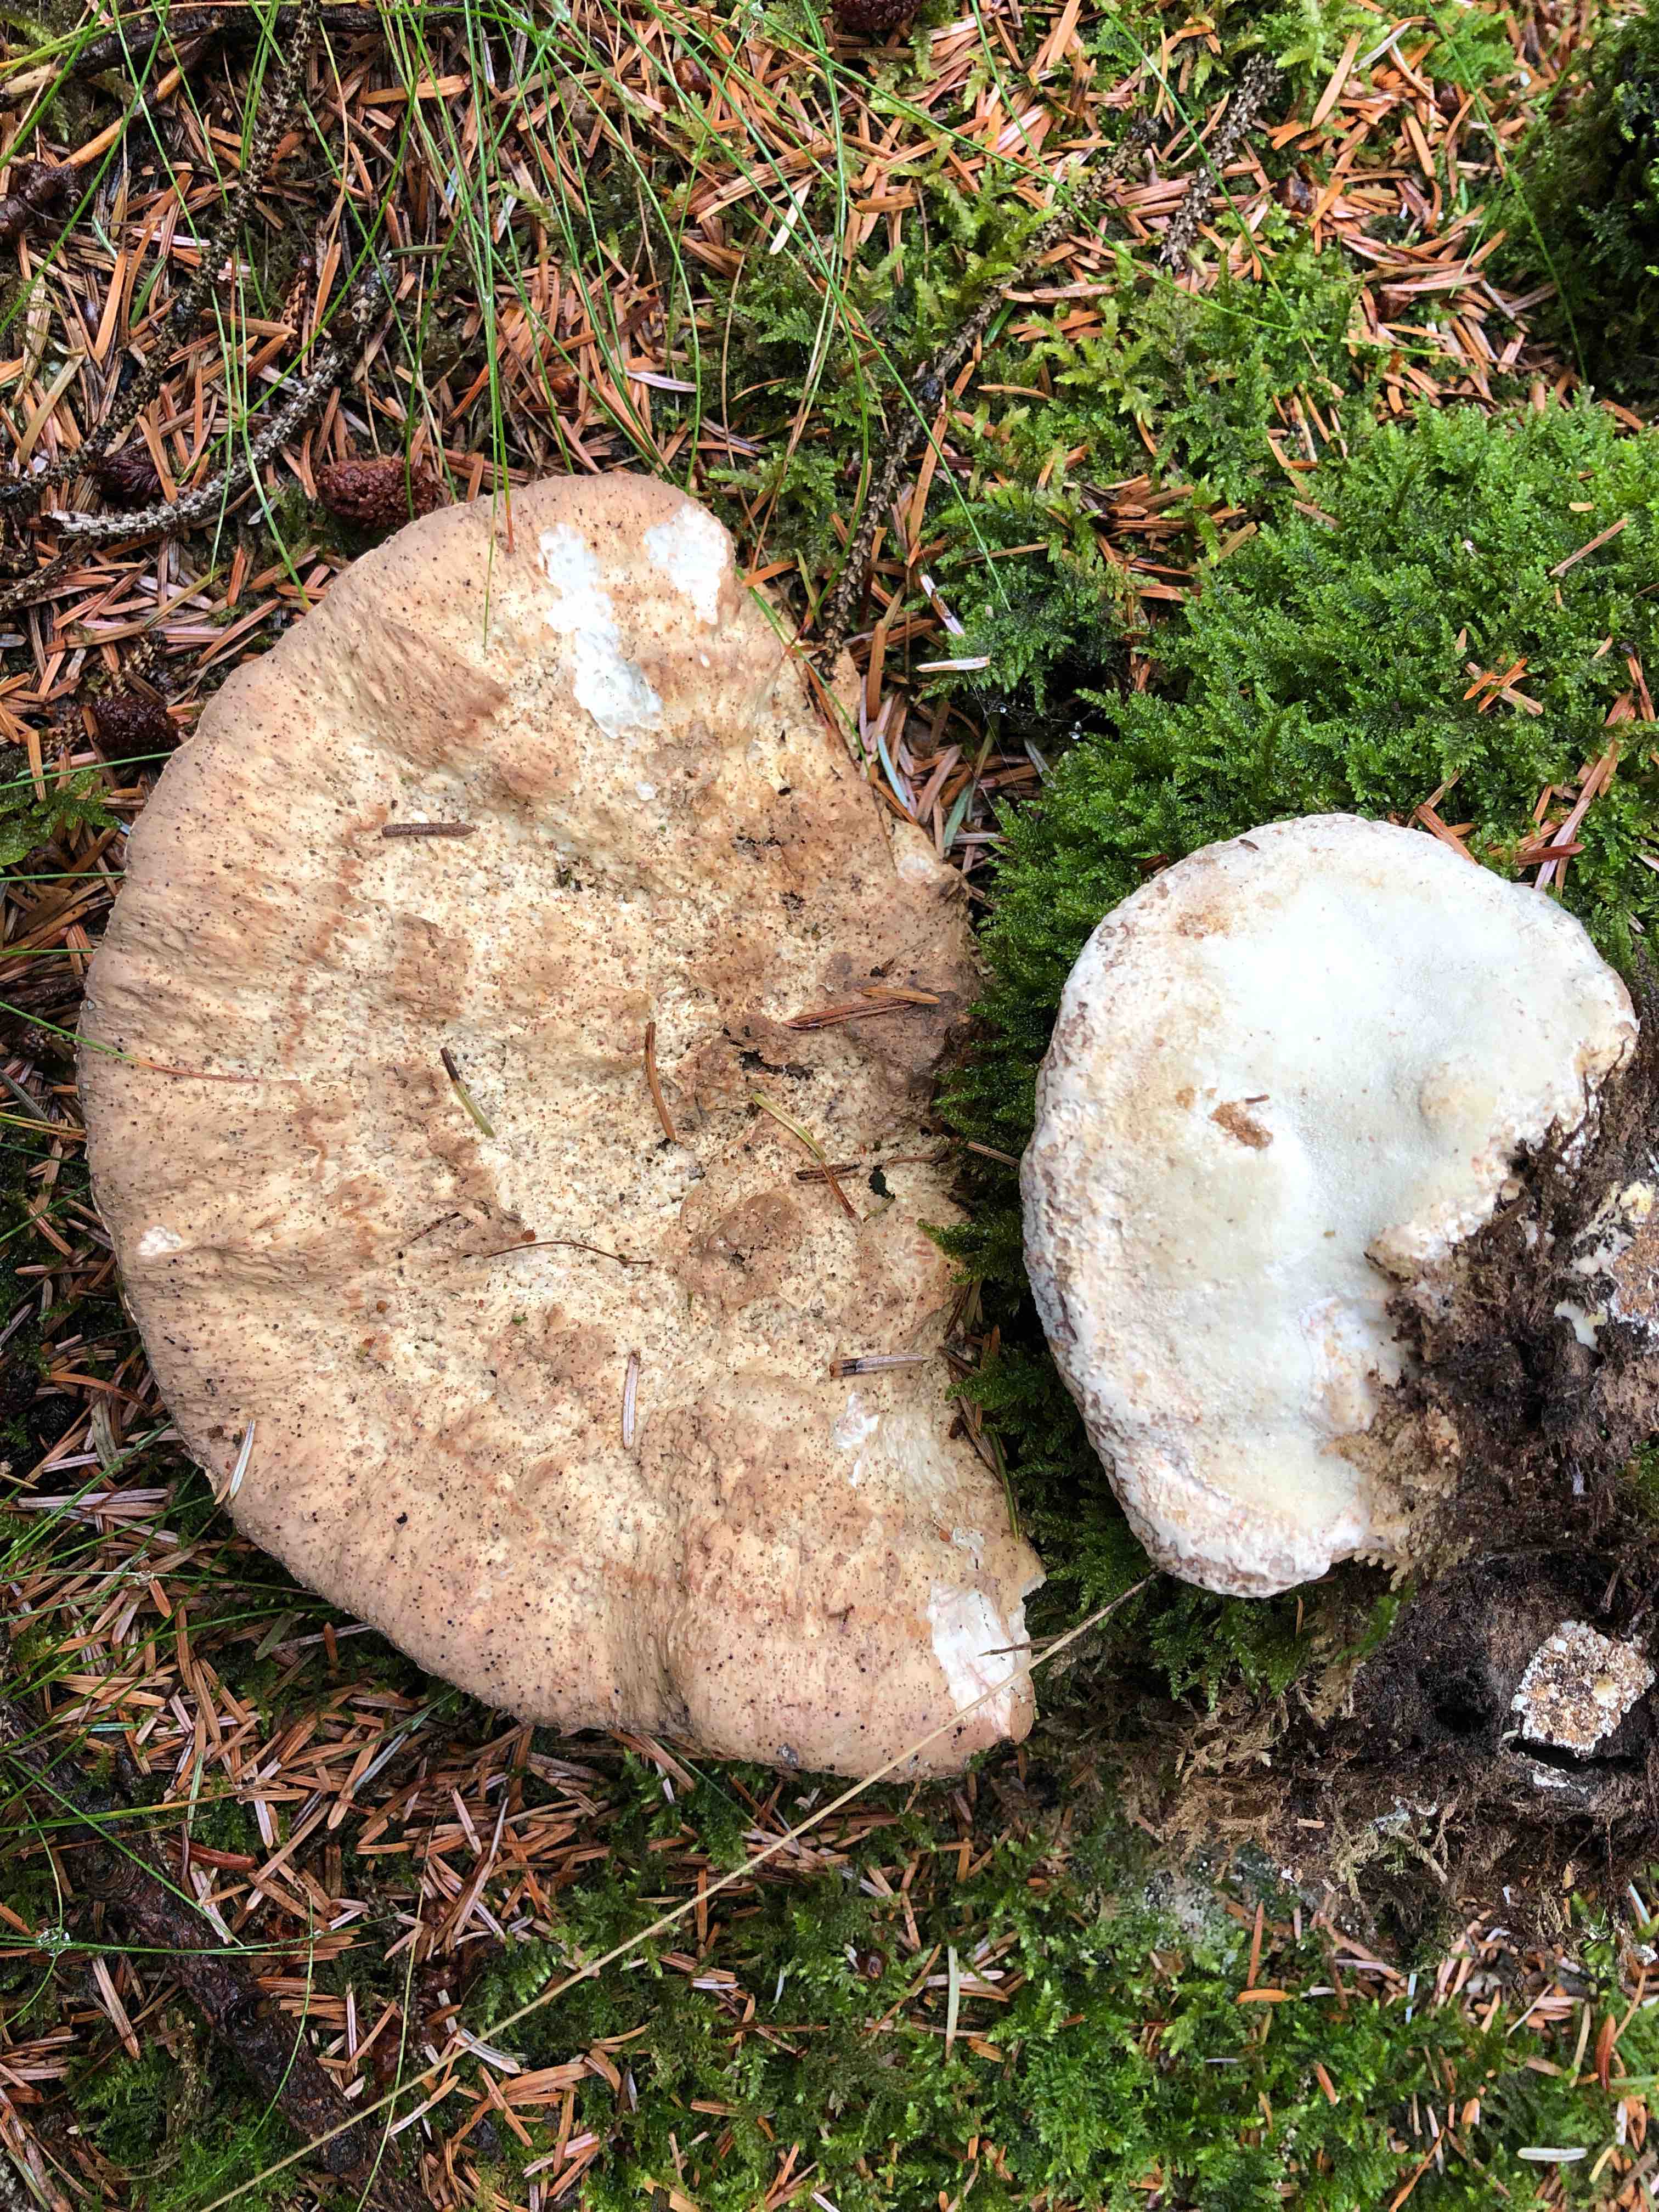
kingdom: Fungi
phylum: Basidiomycota
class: Agaricomycetes
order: Polyporales
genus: Calcipostia
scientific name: Calcipostia guttulata
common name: dråbe-kødporesvamp
